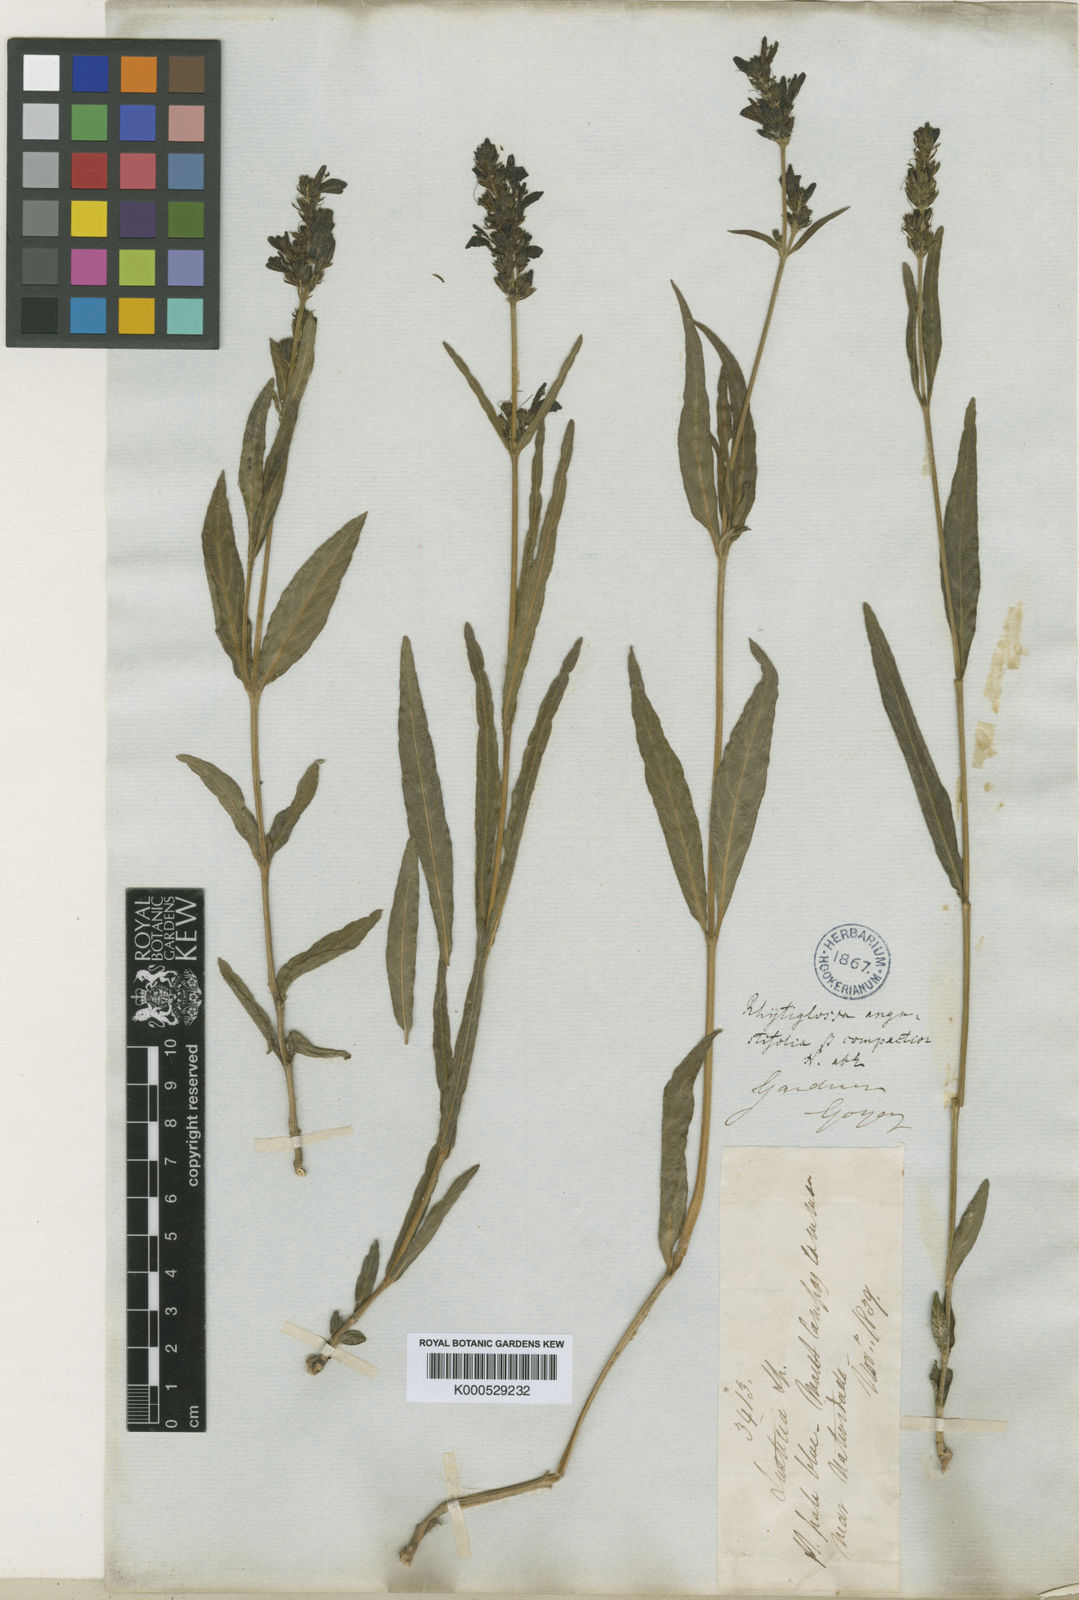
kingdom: Plantae
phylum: Tracheophyta
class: Magnoliopsida
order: Lamiales
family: Acanthaceae
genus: Dianthera
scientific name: Dianthera angustifolia
